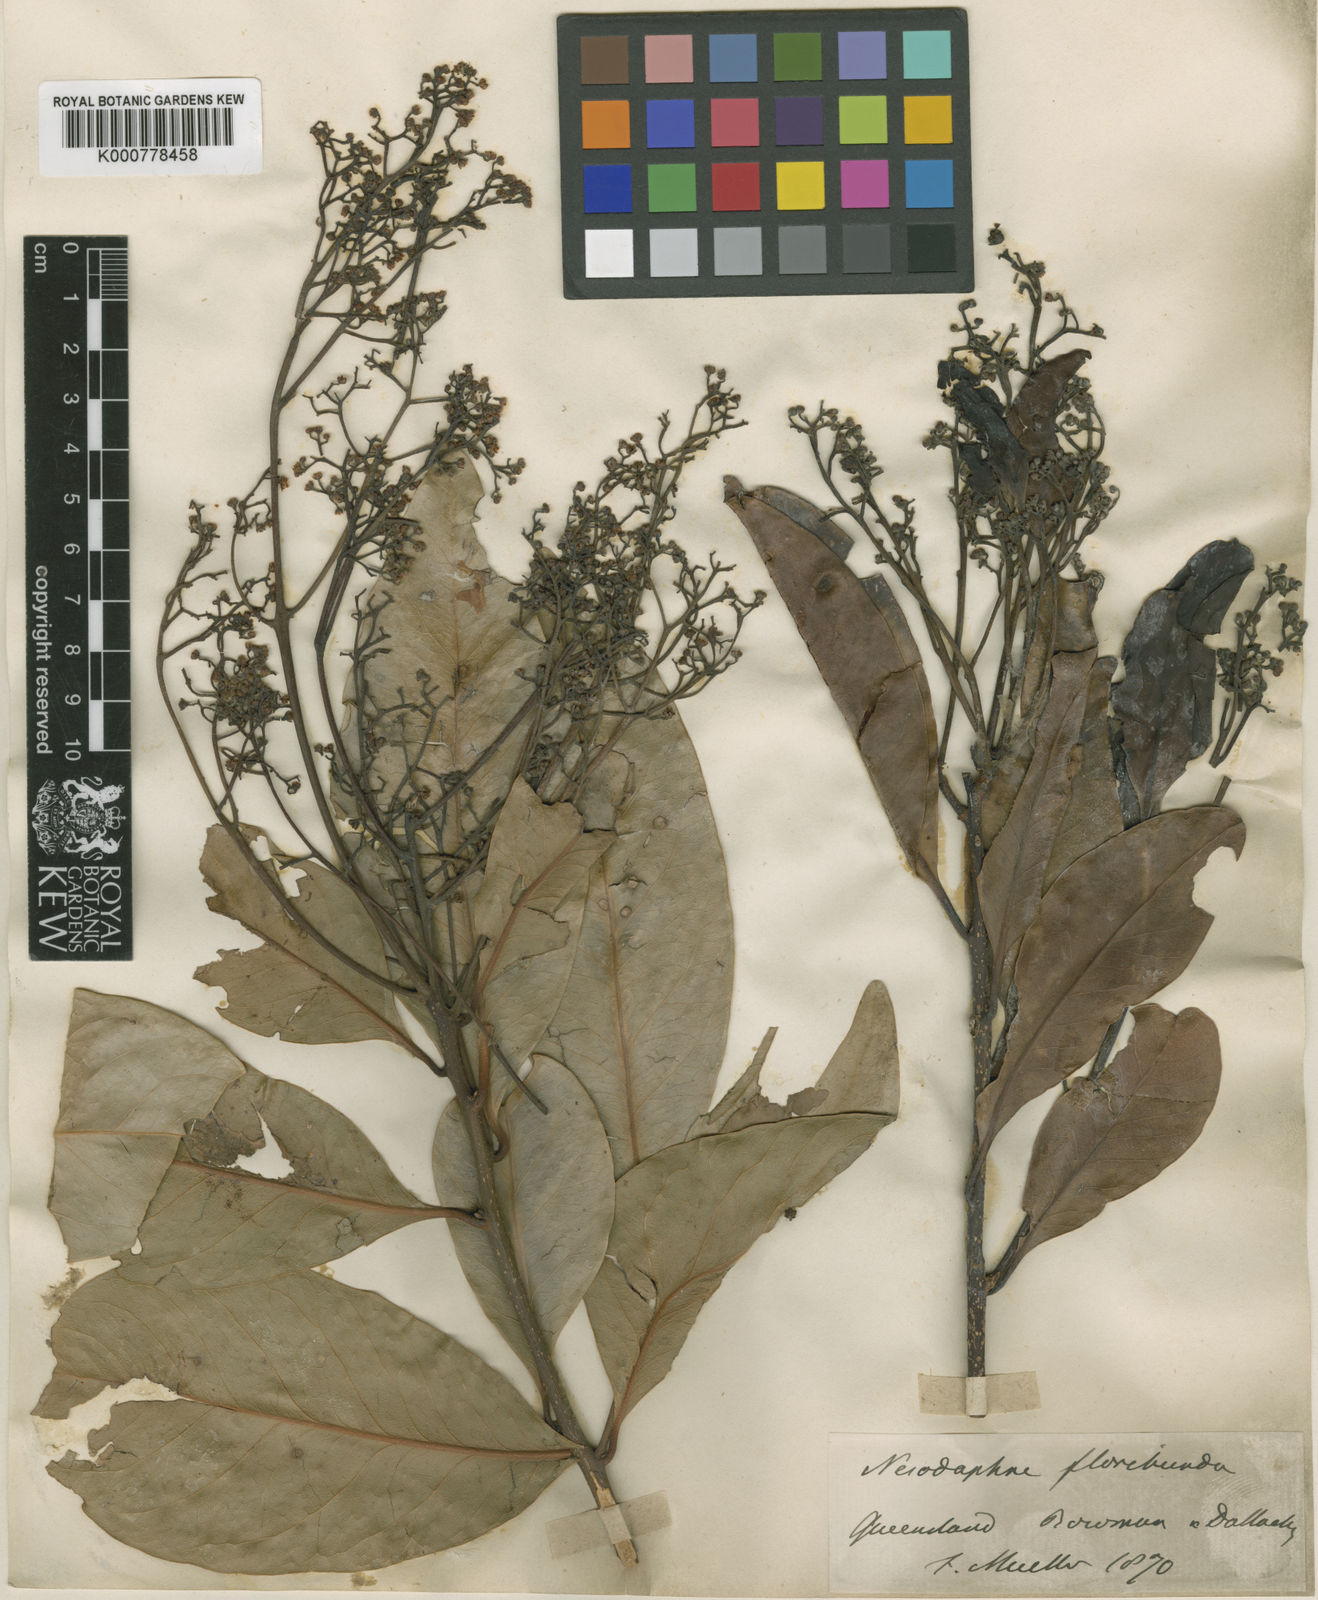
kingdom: Plantae
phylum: Tracheophyta
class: Magnoliopsida
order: Laurales
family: Lauraceae
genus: Beilschmiedia
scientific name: Beilschmiedia obtusifolia
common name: Queensland-sassafras
